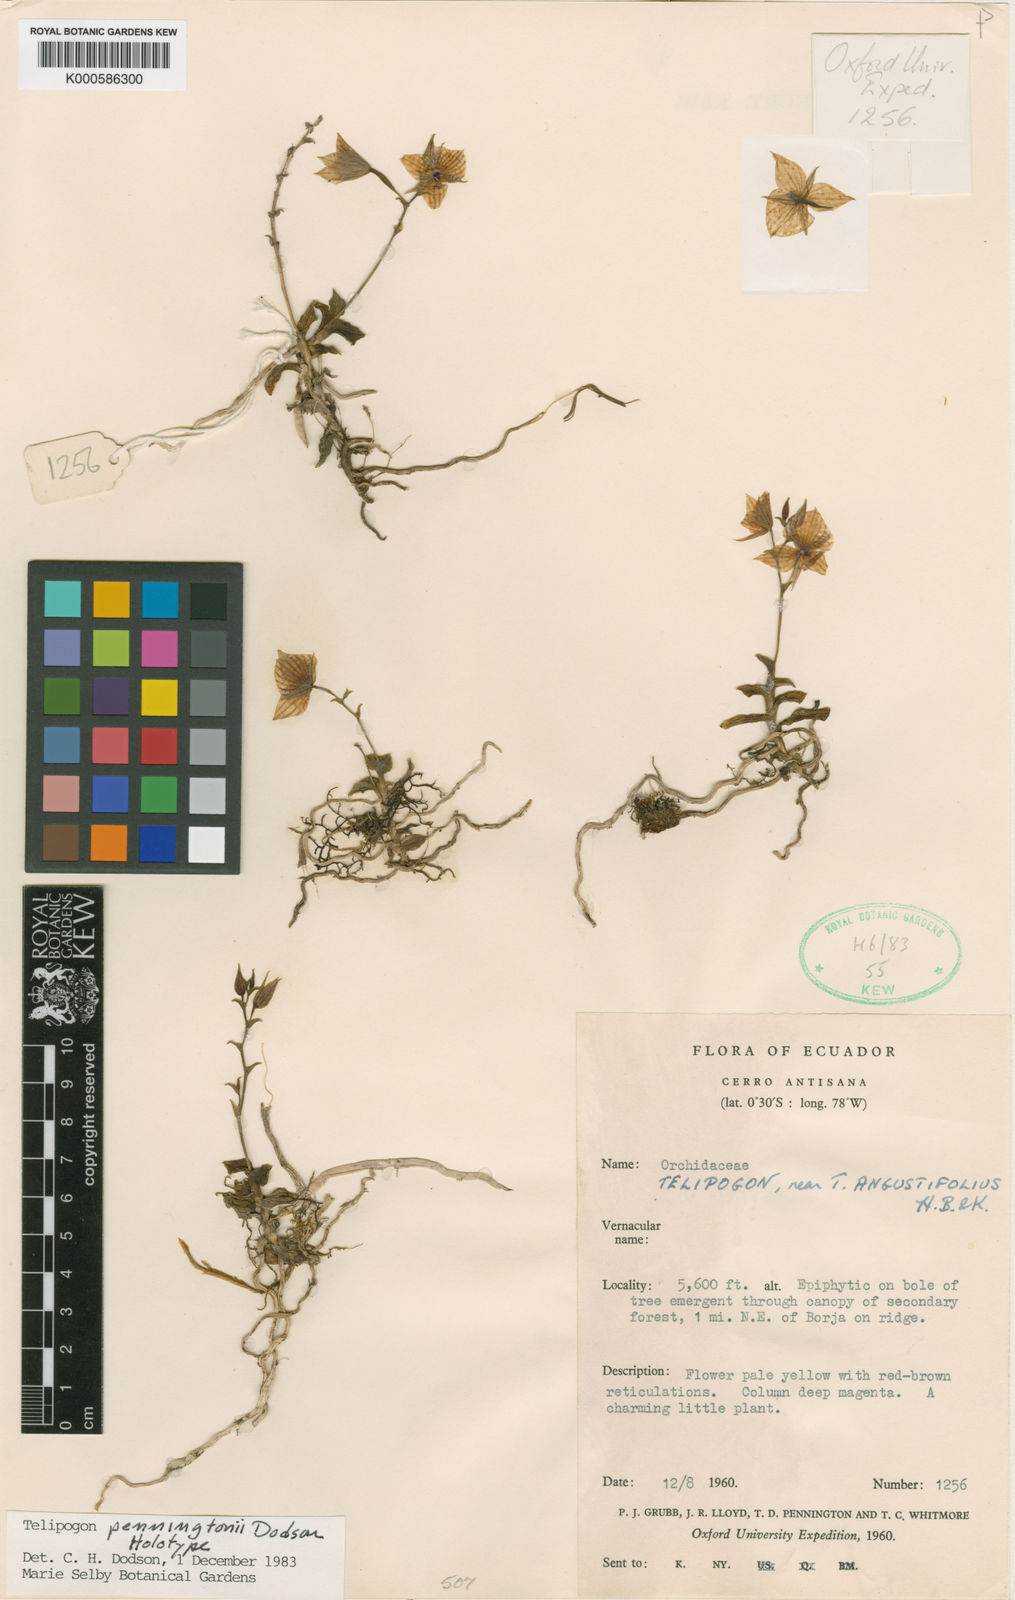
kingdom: Plantae
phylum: Tracheophyta
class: Liliopsida
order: Asparagales
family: Orchidaceae
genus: Telipogon
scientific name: Telipogon penningtonii
